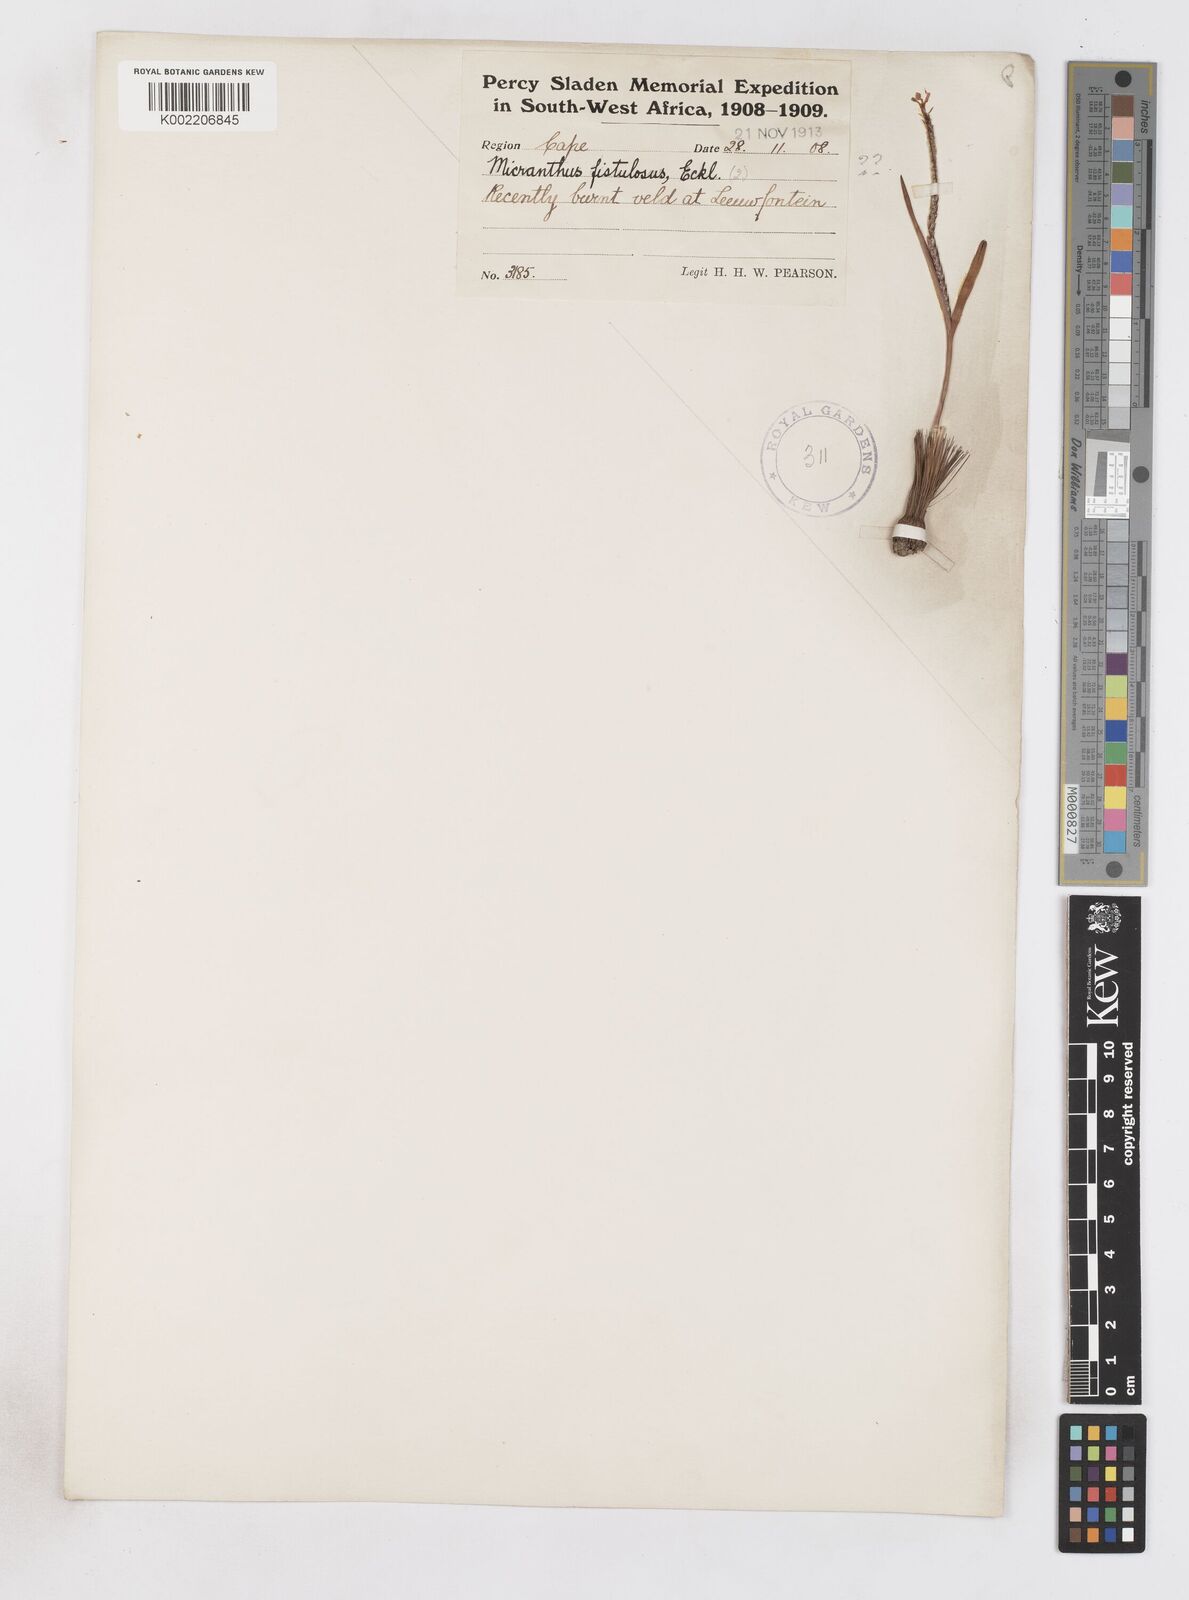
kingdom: Plantae
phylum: Tracheophyta
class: Liliopsida
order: Asparagales
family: Iridaceae
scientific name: Iridaceae
